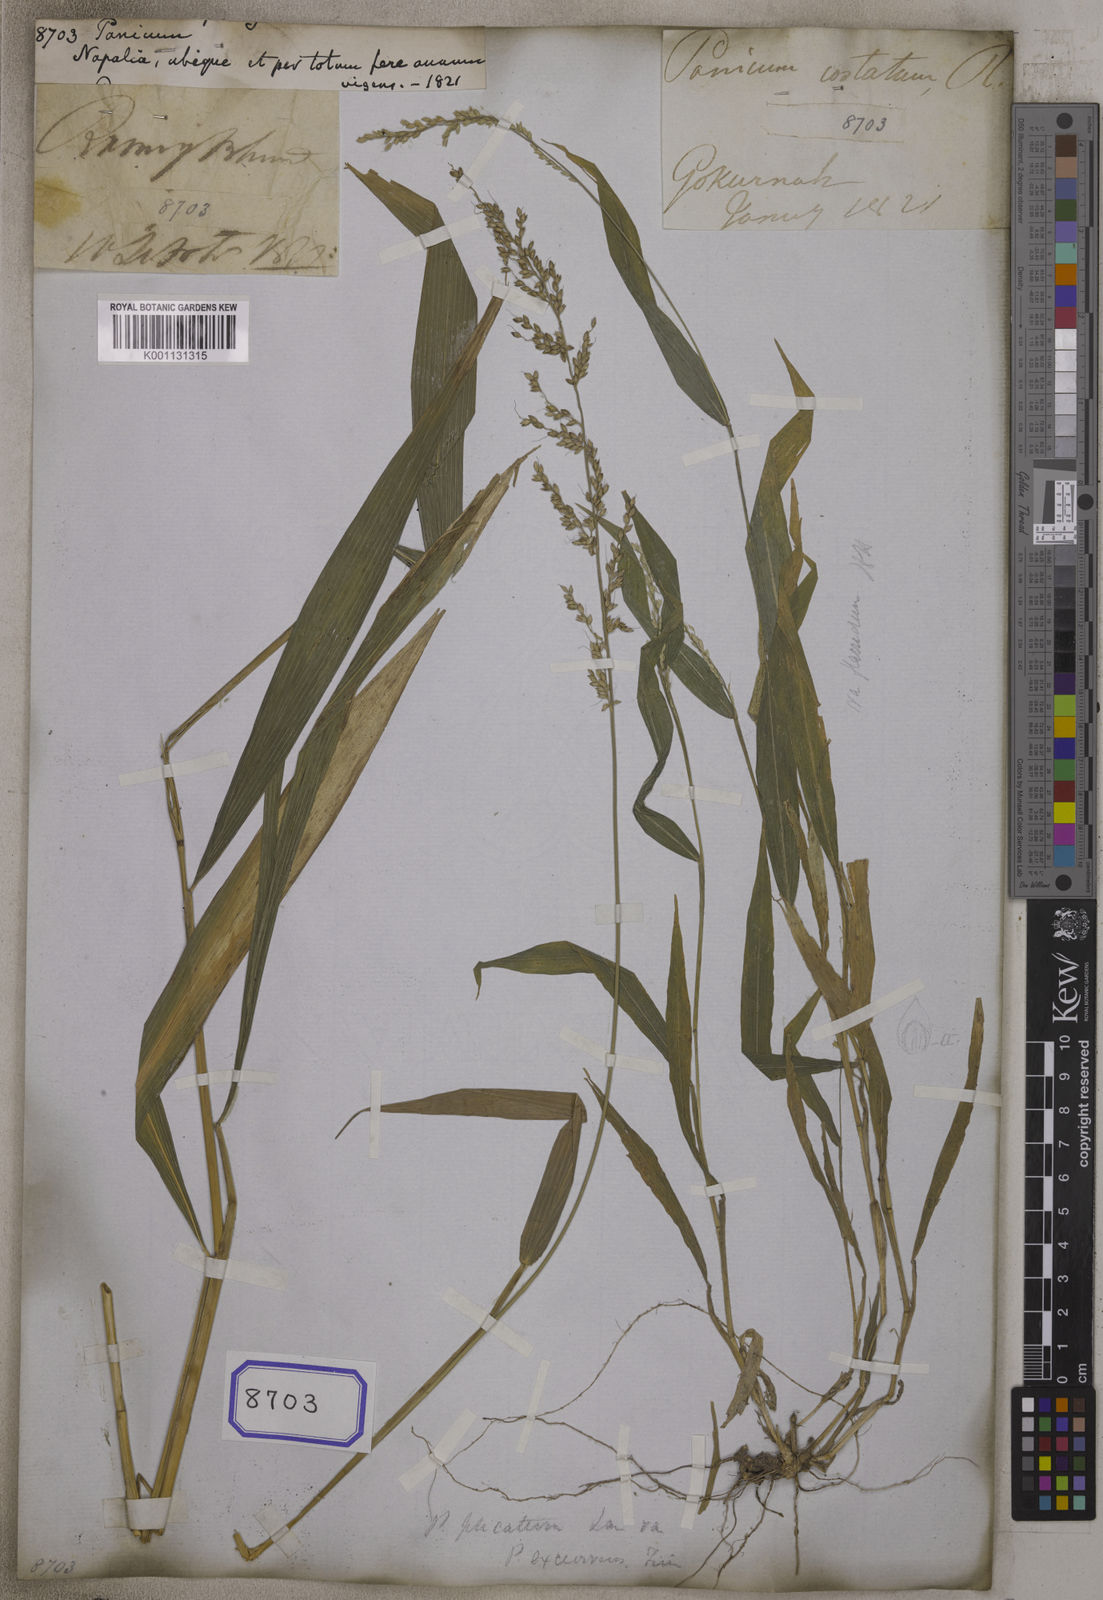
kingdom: Plantae
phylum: Tracheophyta
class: Liliopsida
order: Poales
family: Poaceae
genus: Panicum
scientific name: Panicum
